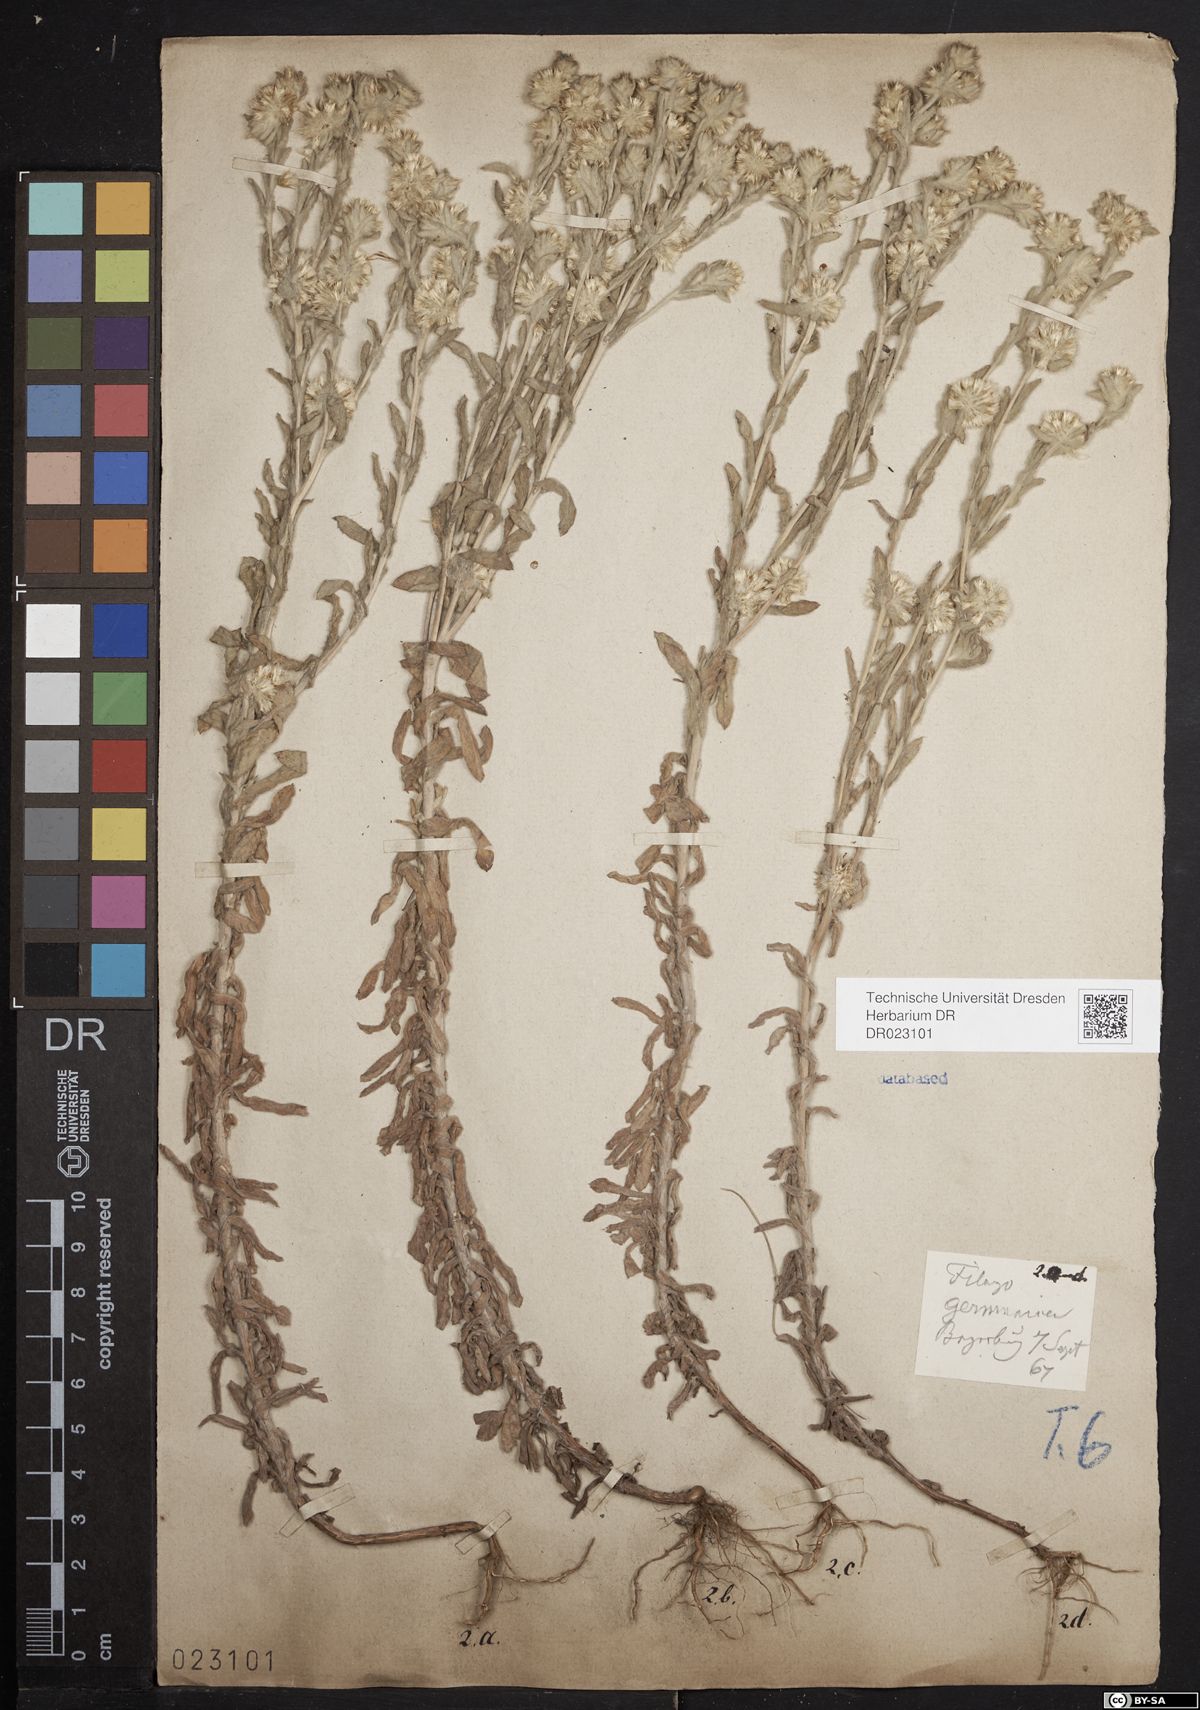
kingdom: Plantae
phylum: Tracheophyta
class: Magnoliopsida
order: Asterales
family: Asteraceae
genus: Filago
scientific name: Filago germanica
